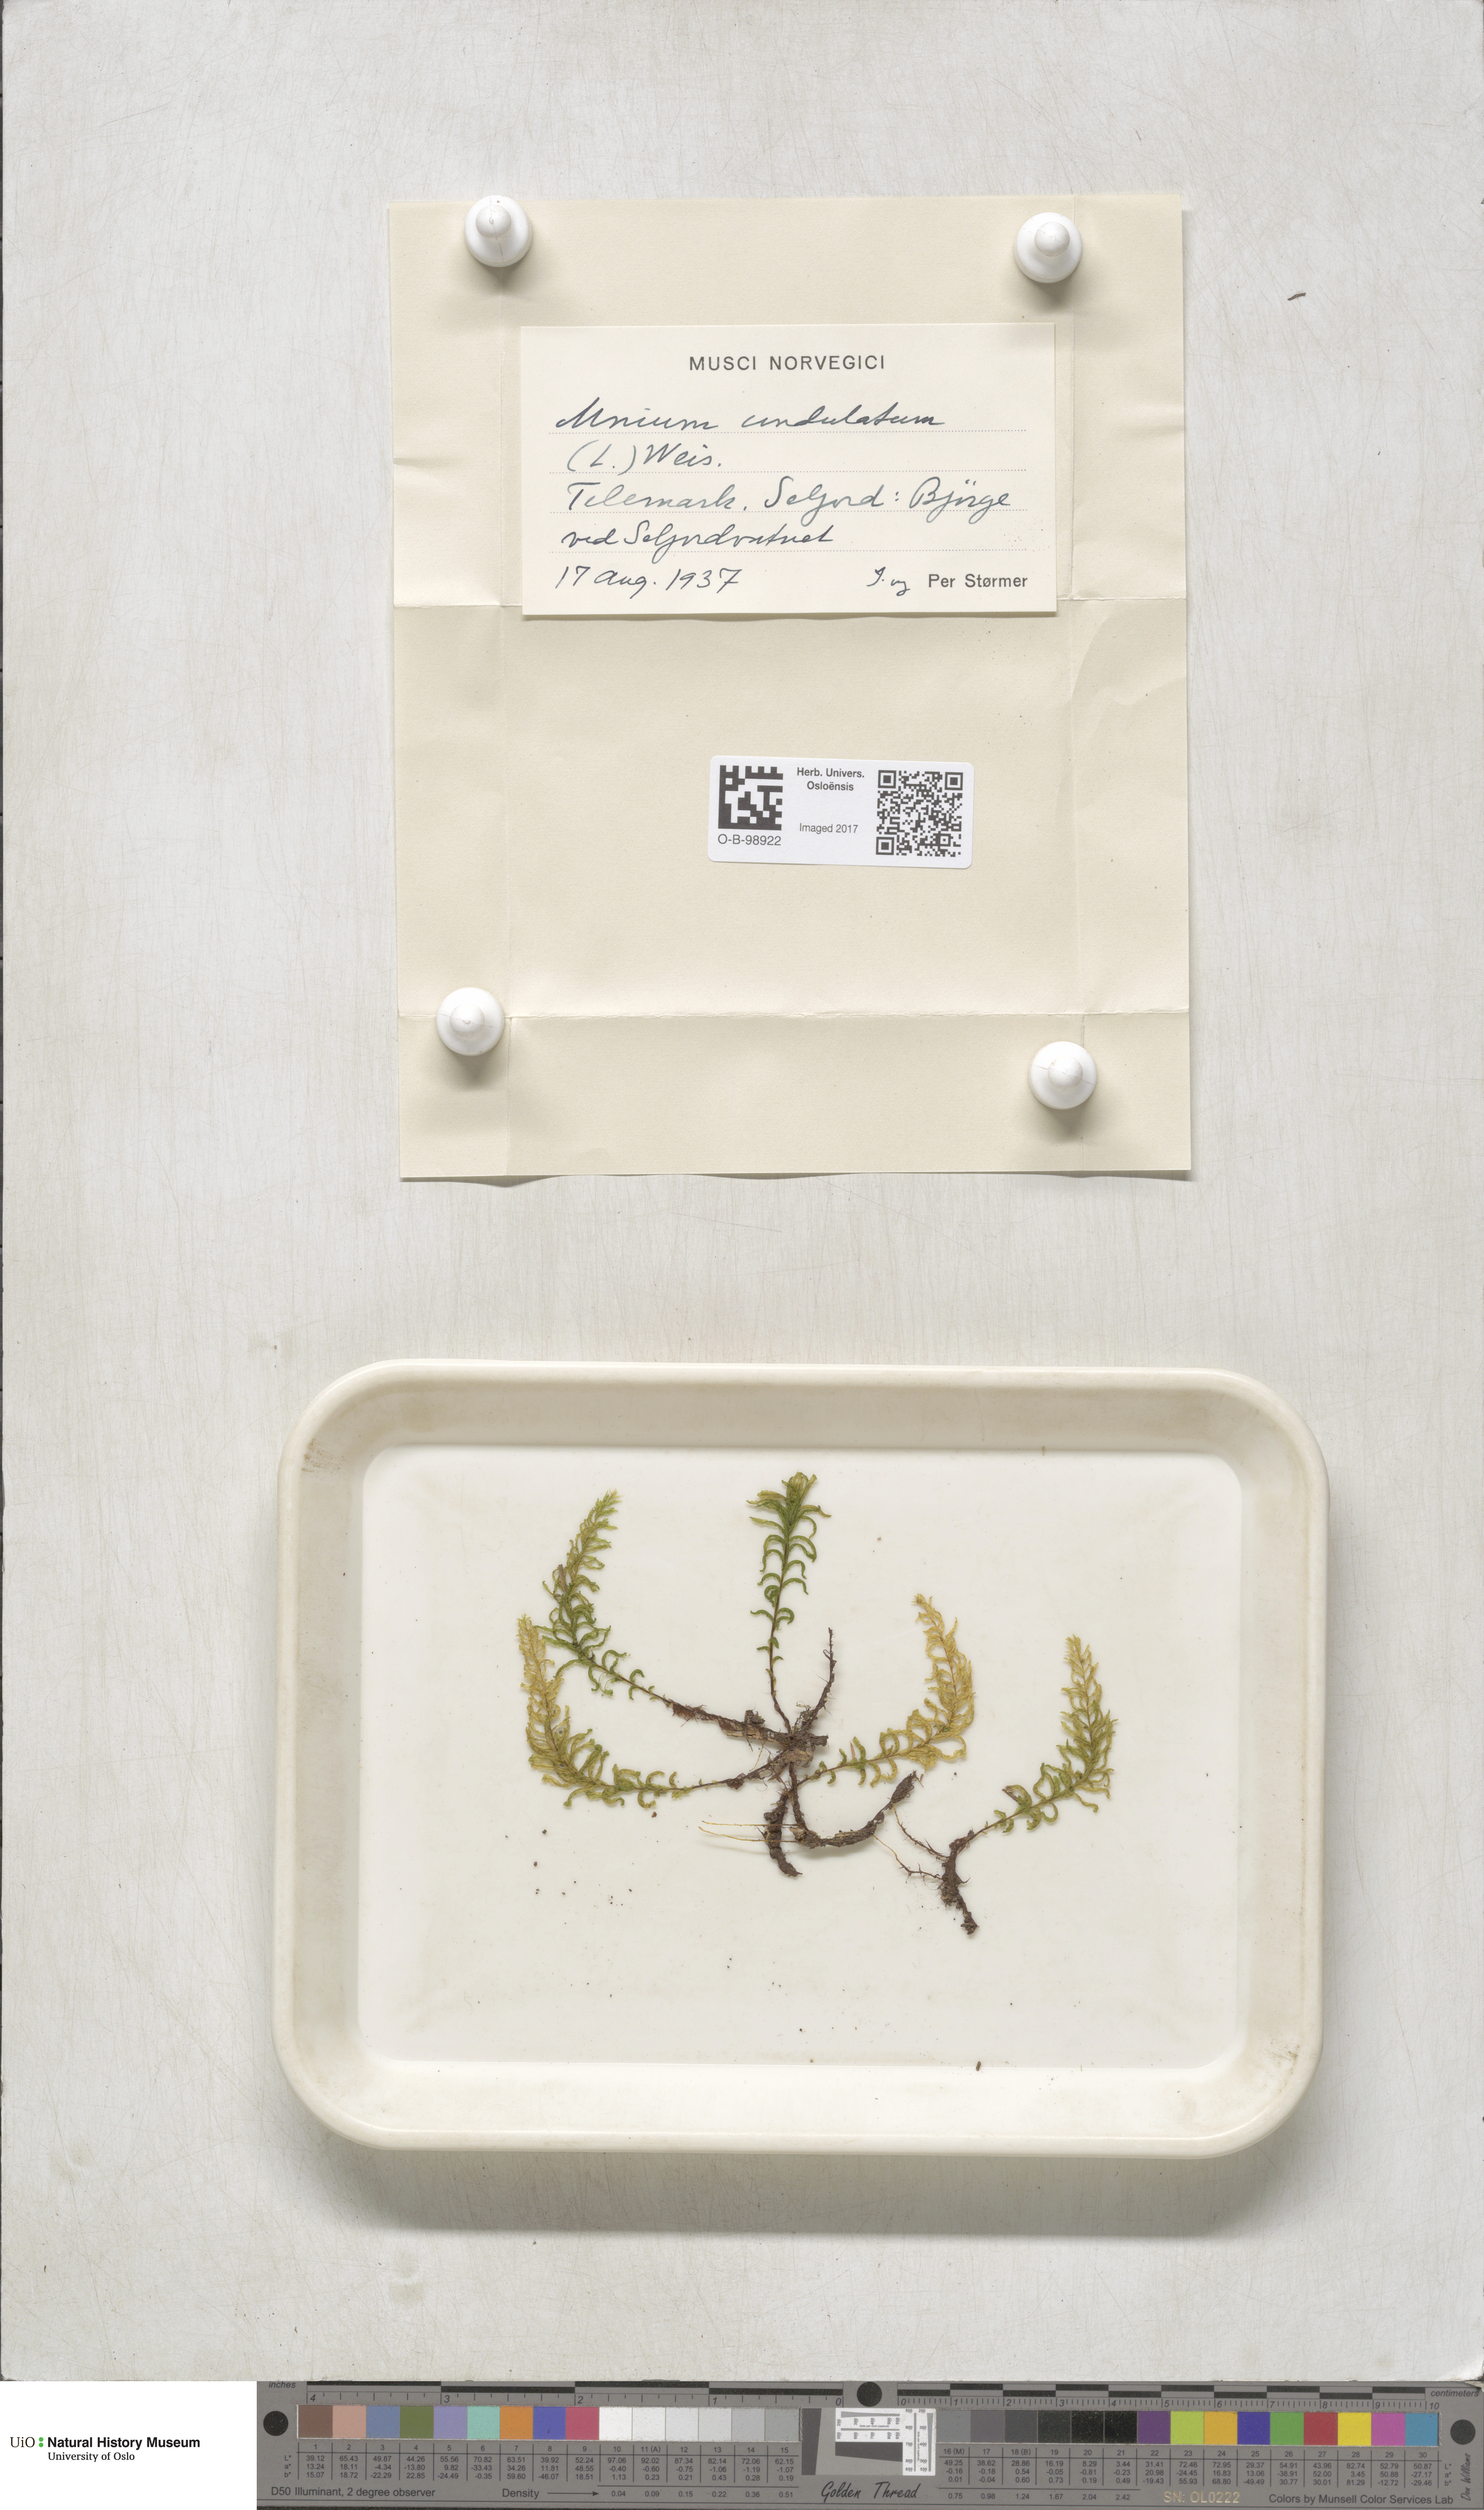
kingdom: Plantae
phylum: Bryophyta
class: Bryopsida
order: Bryales
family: Mniaceae
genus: Plagiomnium
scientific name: Plagiomnium undulatum
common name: Hart's-tongue thyme-moss
